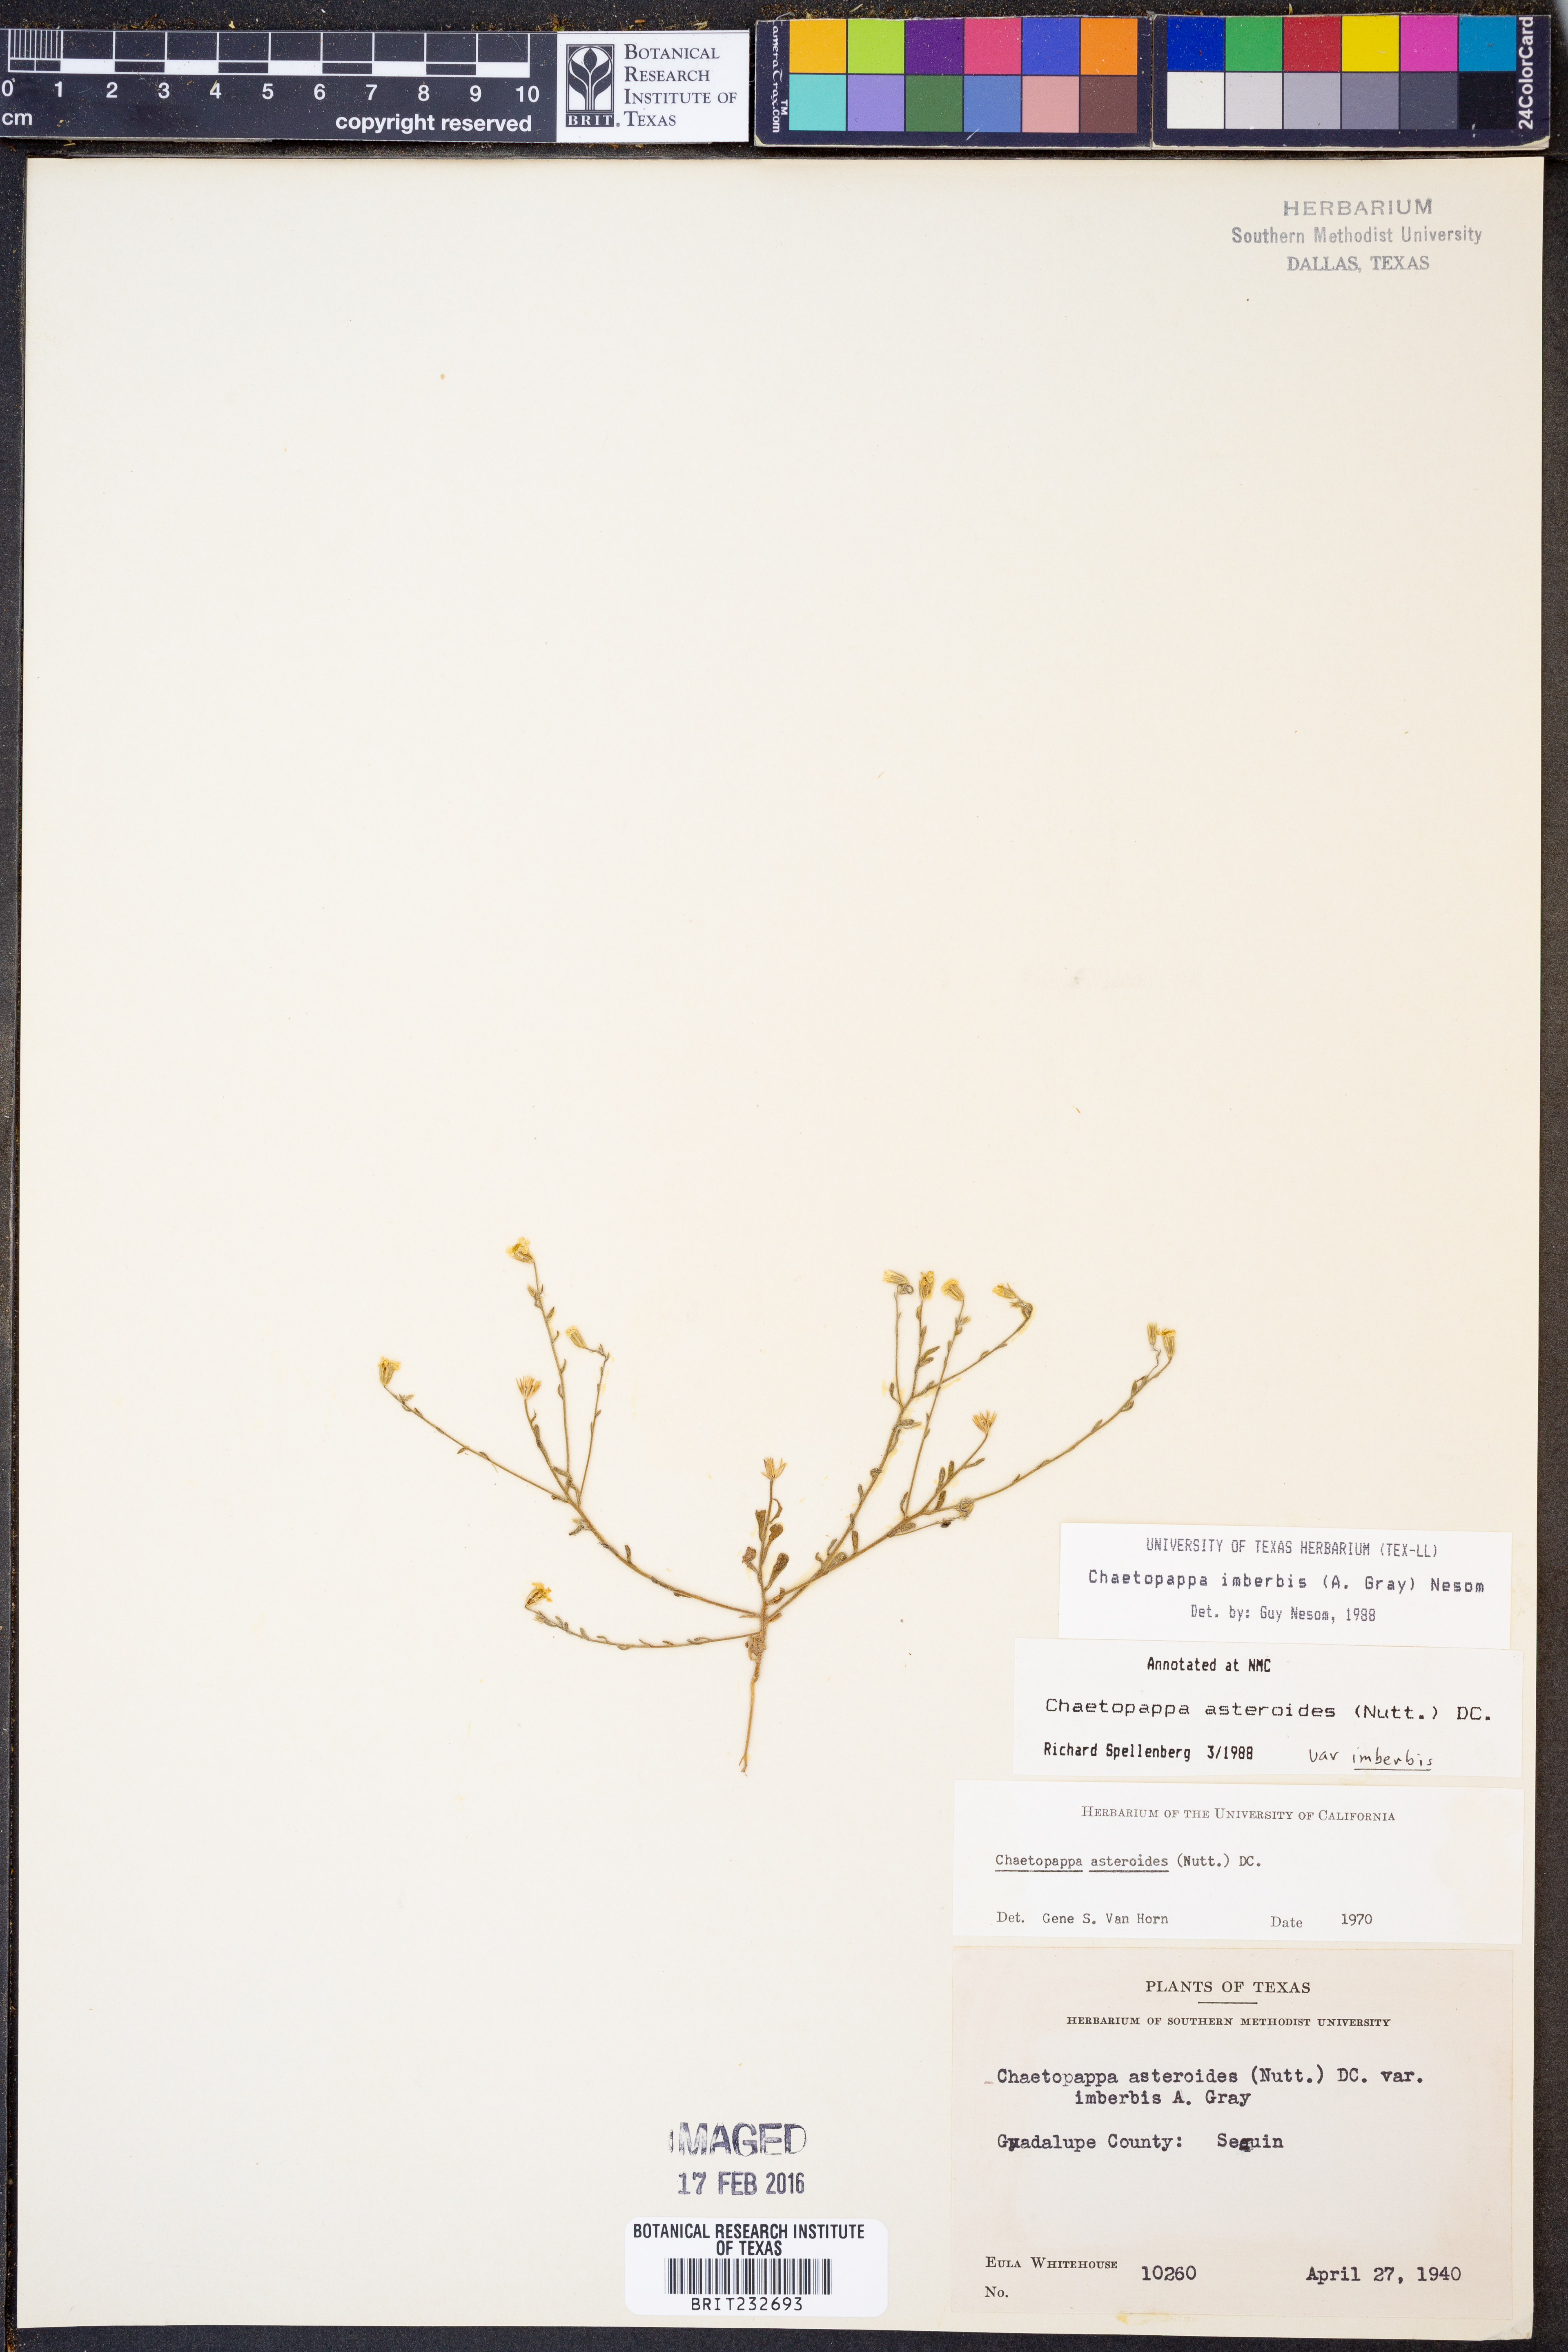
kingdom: Plantae
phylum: Tracheophyta
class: Magnoliopsida
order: Asterales
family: Asteraceae
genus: Chaetopappa
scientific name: Chaetopappa imberbis
